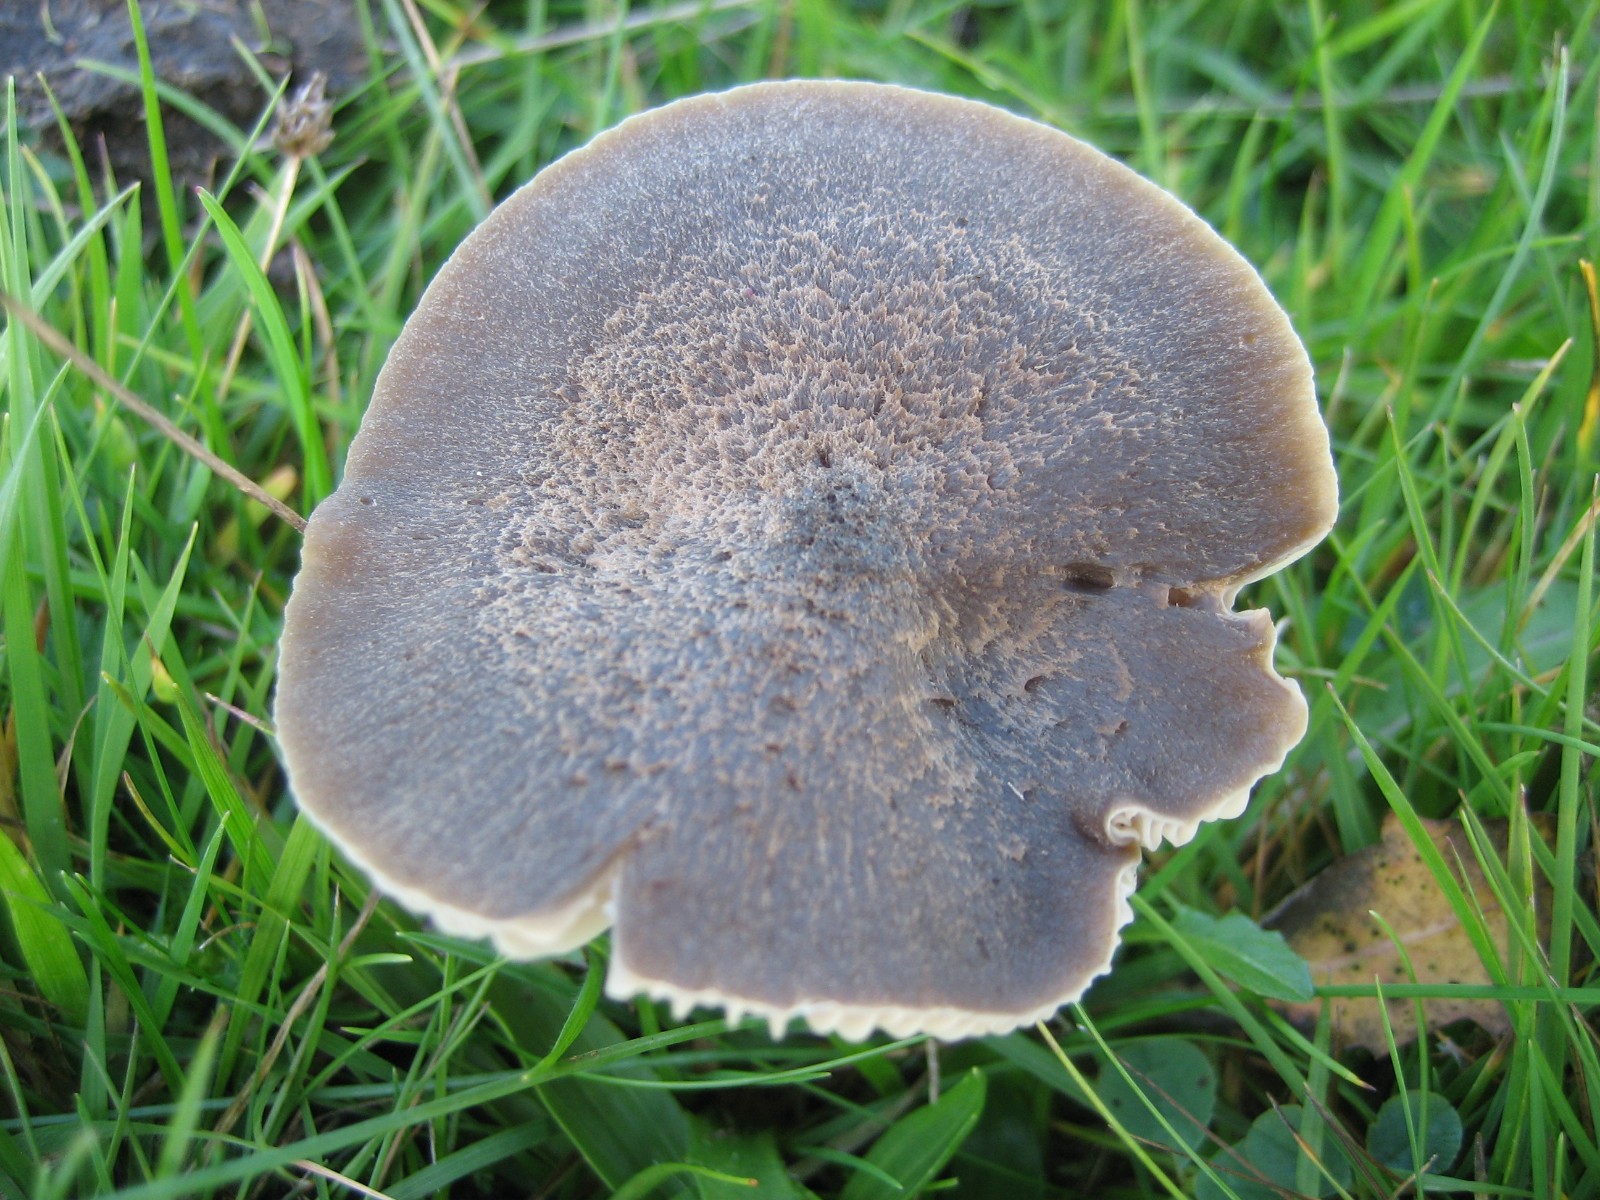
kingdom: Fungi
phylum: Basidiomycota
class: Agaricomycetes
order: Agaricales
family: Hygrophoraceae
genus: Neohygrocybe
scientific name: Neohygrocybe nitrata
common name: stinkende vokshat
